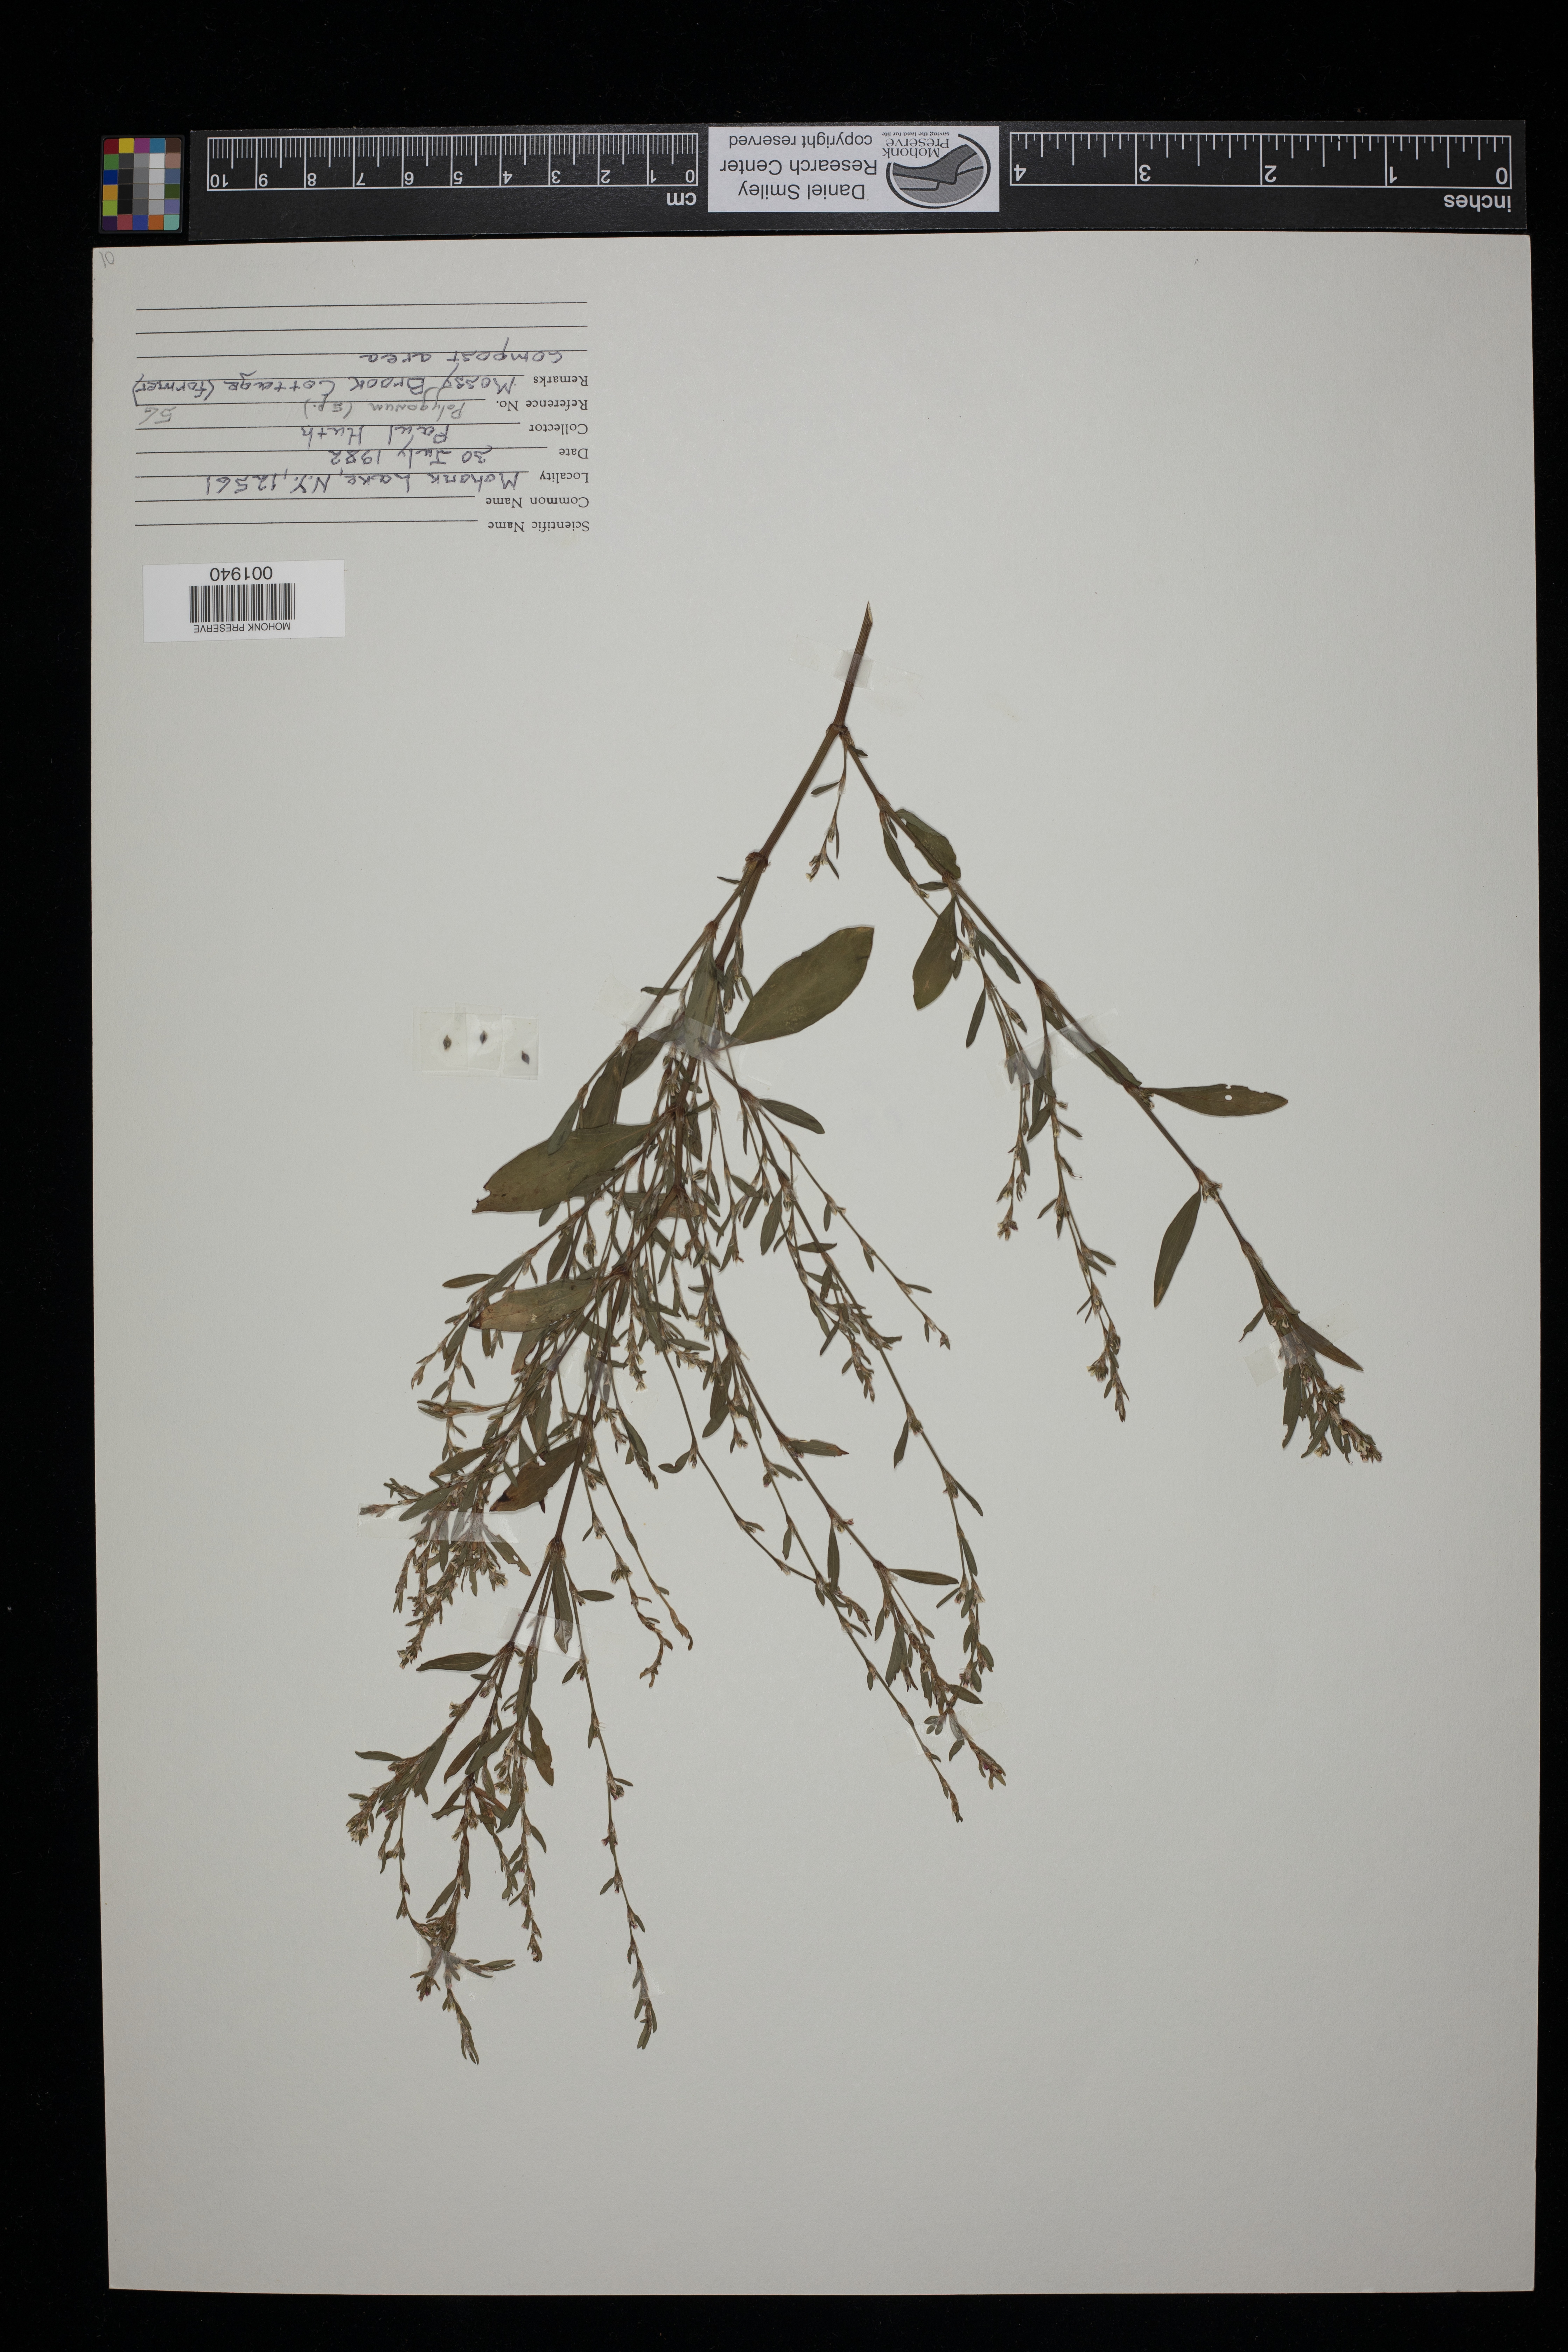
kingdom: Plantae
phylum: Tracheophyta
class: Magnoliopsida
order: Caryophyllales
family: Polygonaceae
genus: Polygonum
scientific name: Polygonum
